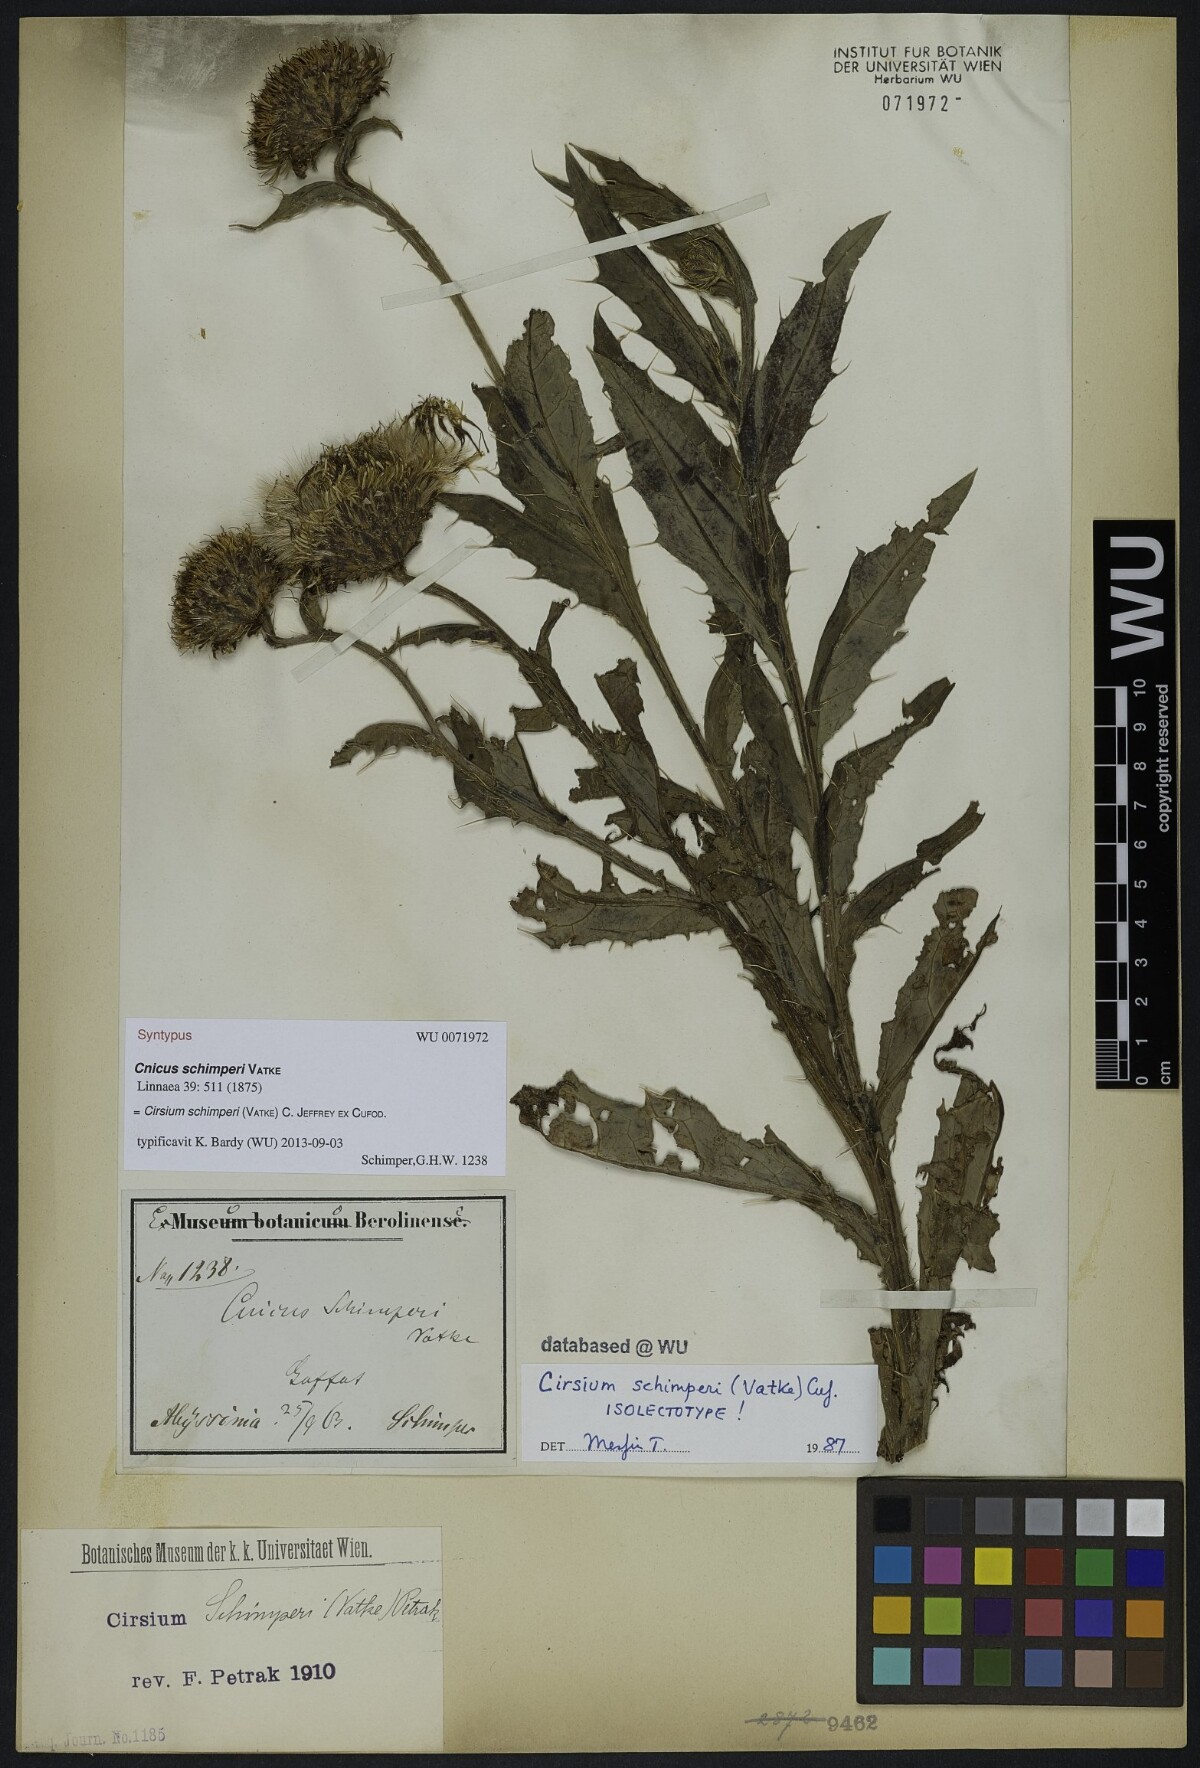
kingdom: Plantae
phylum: Tracheophyta
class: Magnoliopsida
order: Asterales
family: Asteraceae
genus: Cirsium
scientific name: Cirsium schimperi
